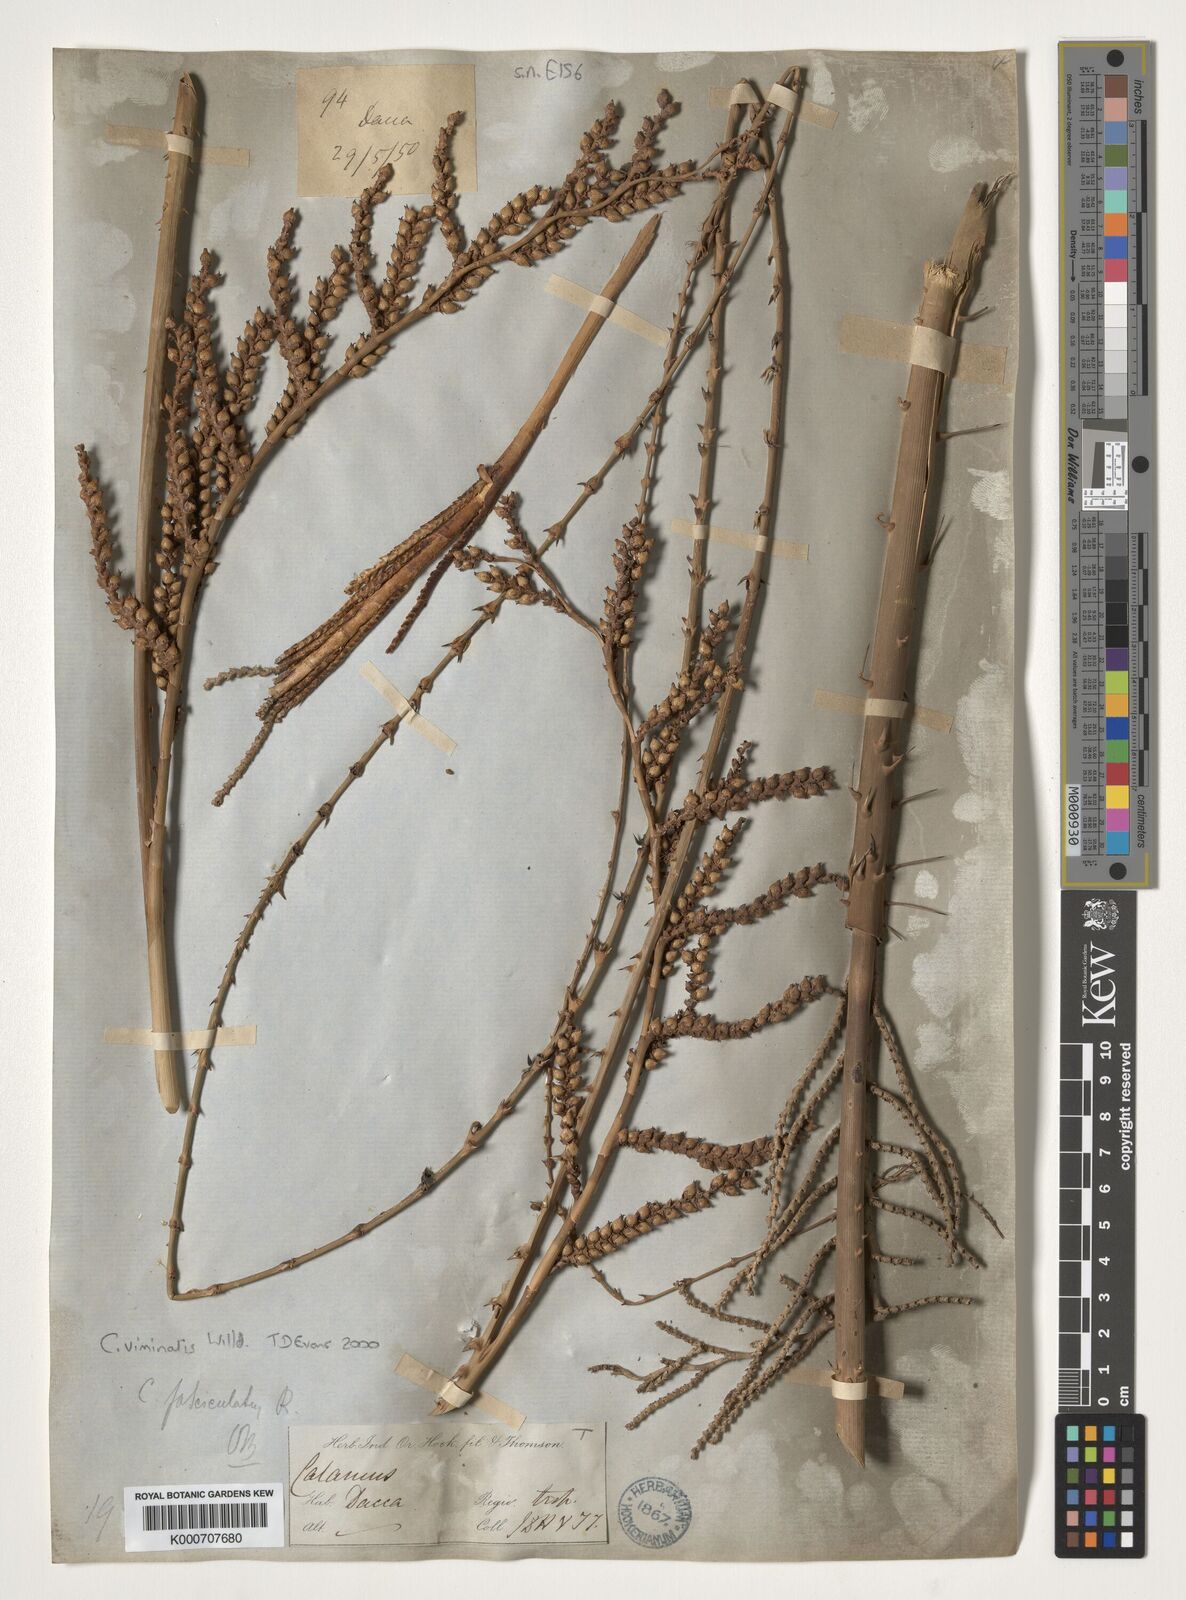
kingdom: Plantae
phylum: Tracheophyta
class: Liliopsida
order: Arecales
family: Arecaceae
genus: Calamus
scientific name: Calamus viminalis
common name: Osier-like rattan palm
